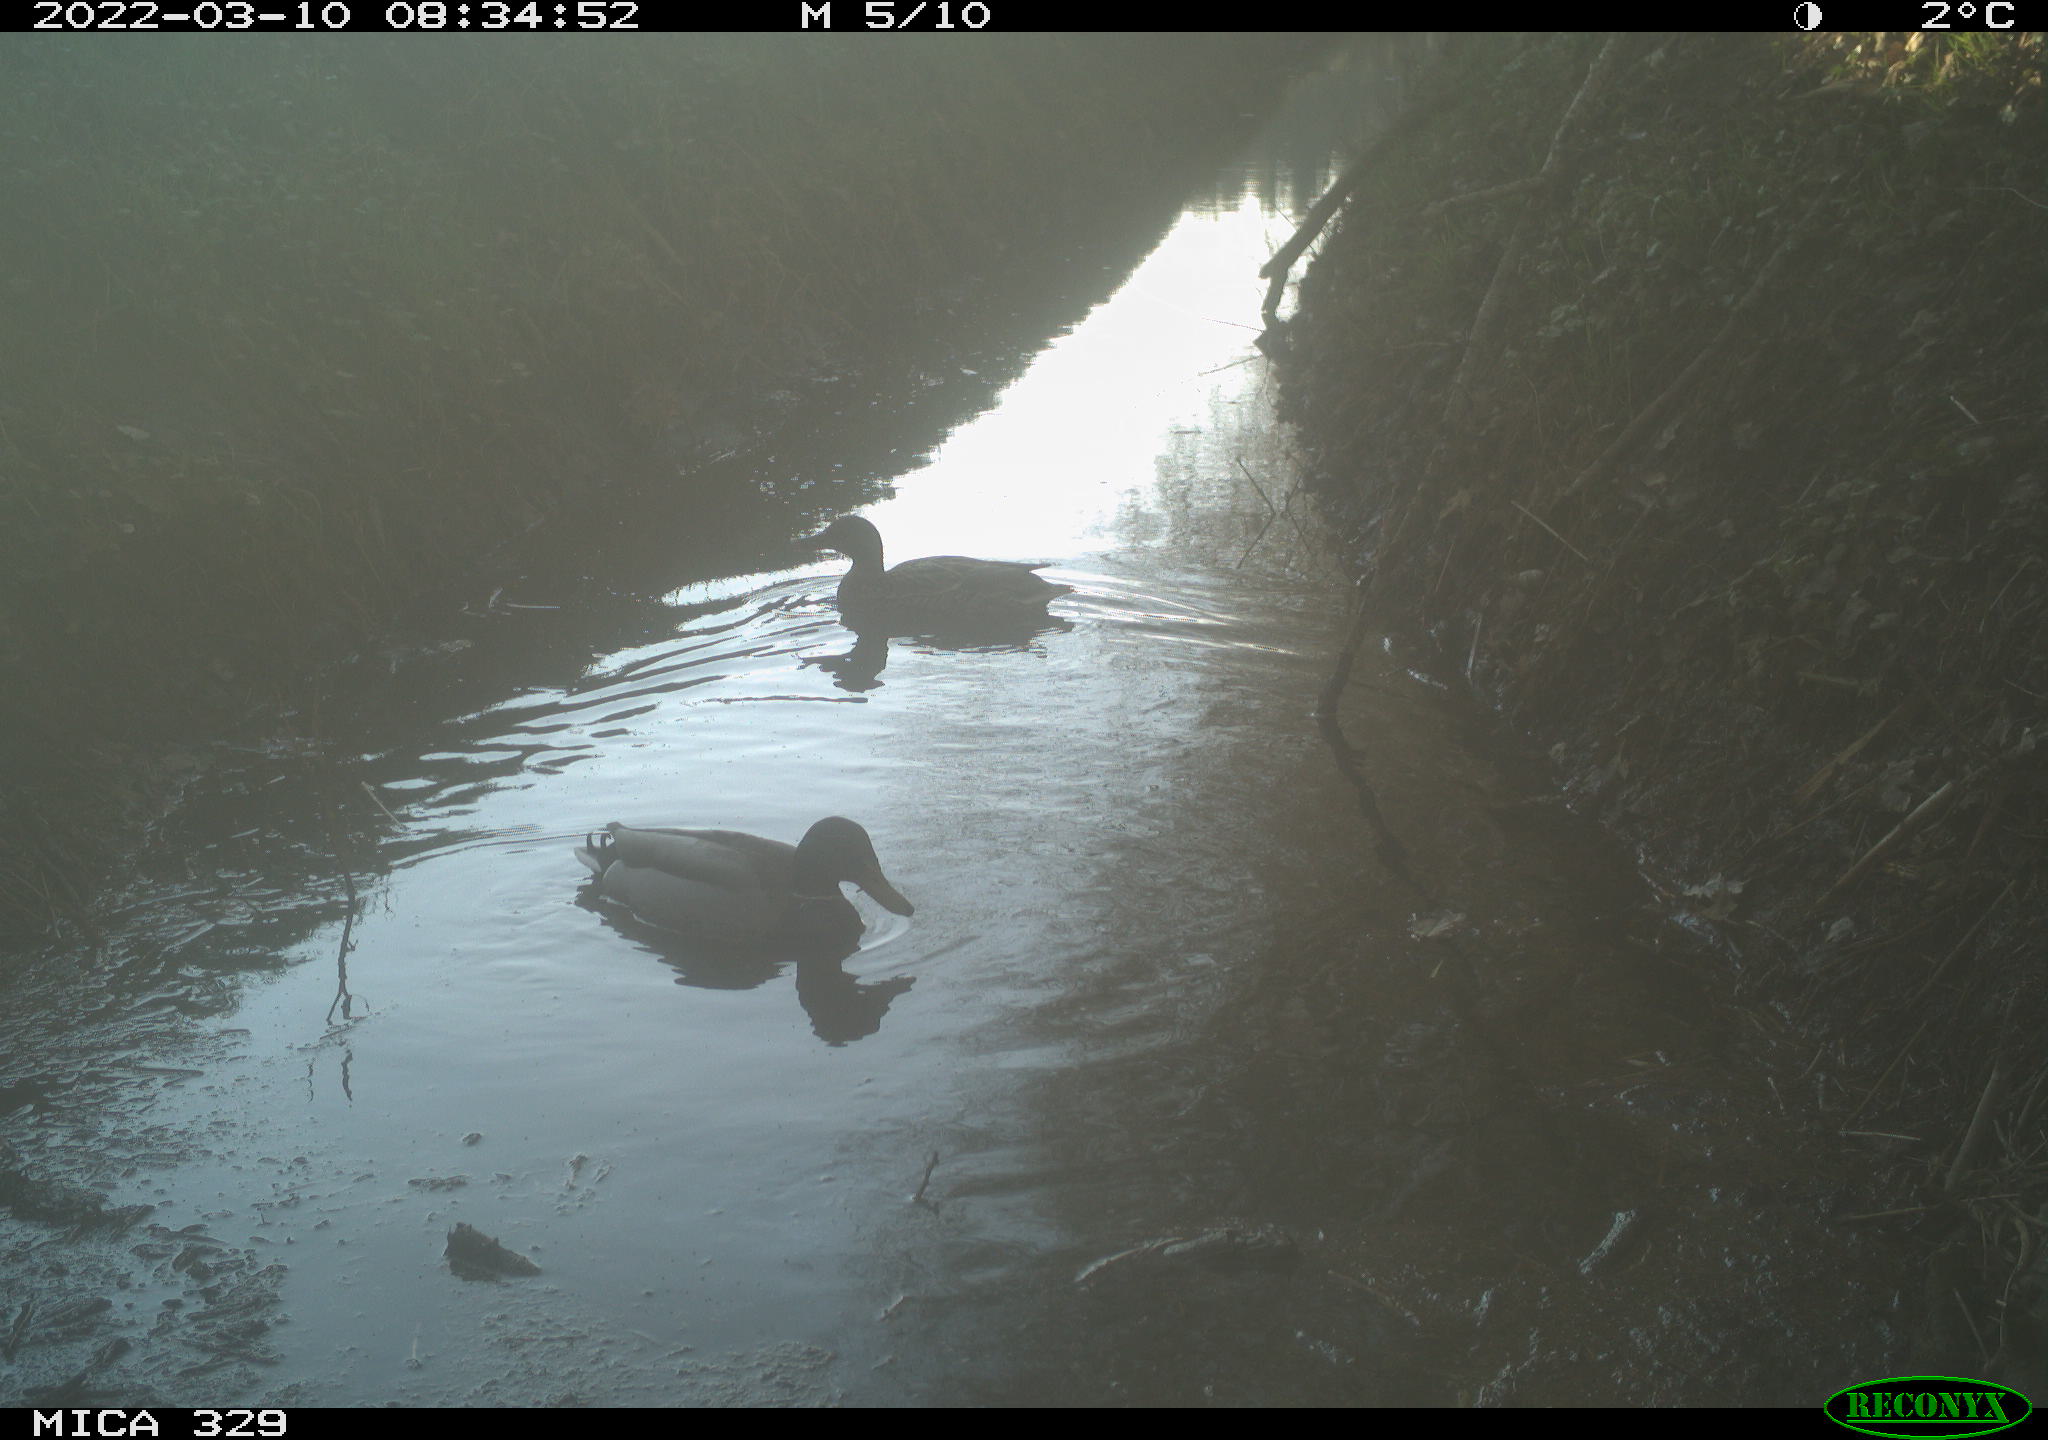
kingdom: Animalia
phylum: Chordata
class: Aves
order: Anseriformes
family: Anatidae
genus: Anas
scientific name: Anas platyrhynchos
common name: Mallard
